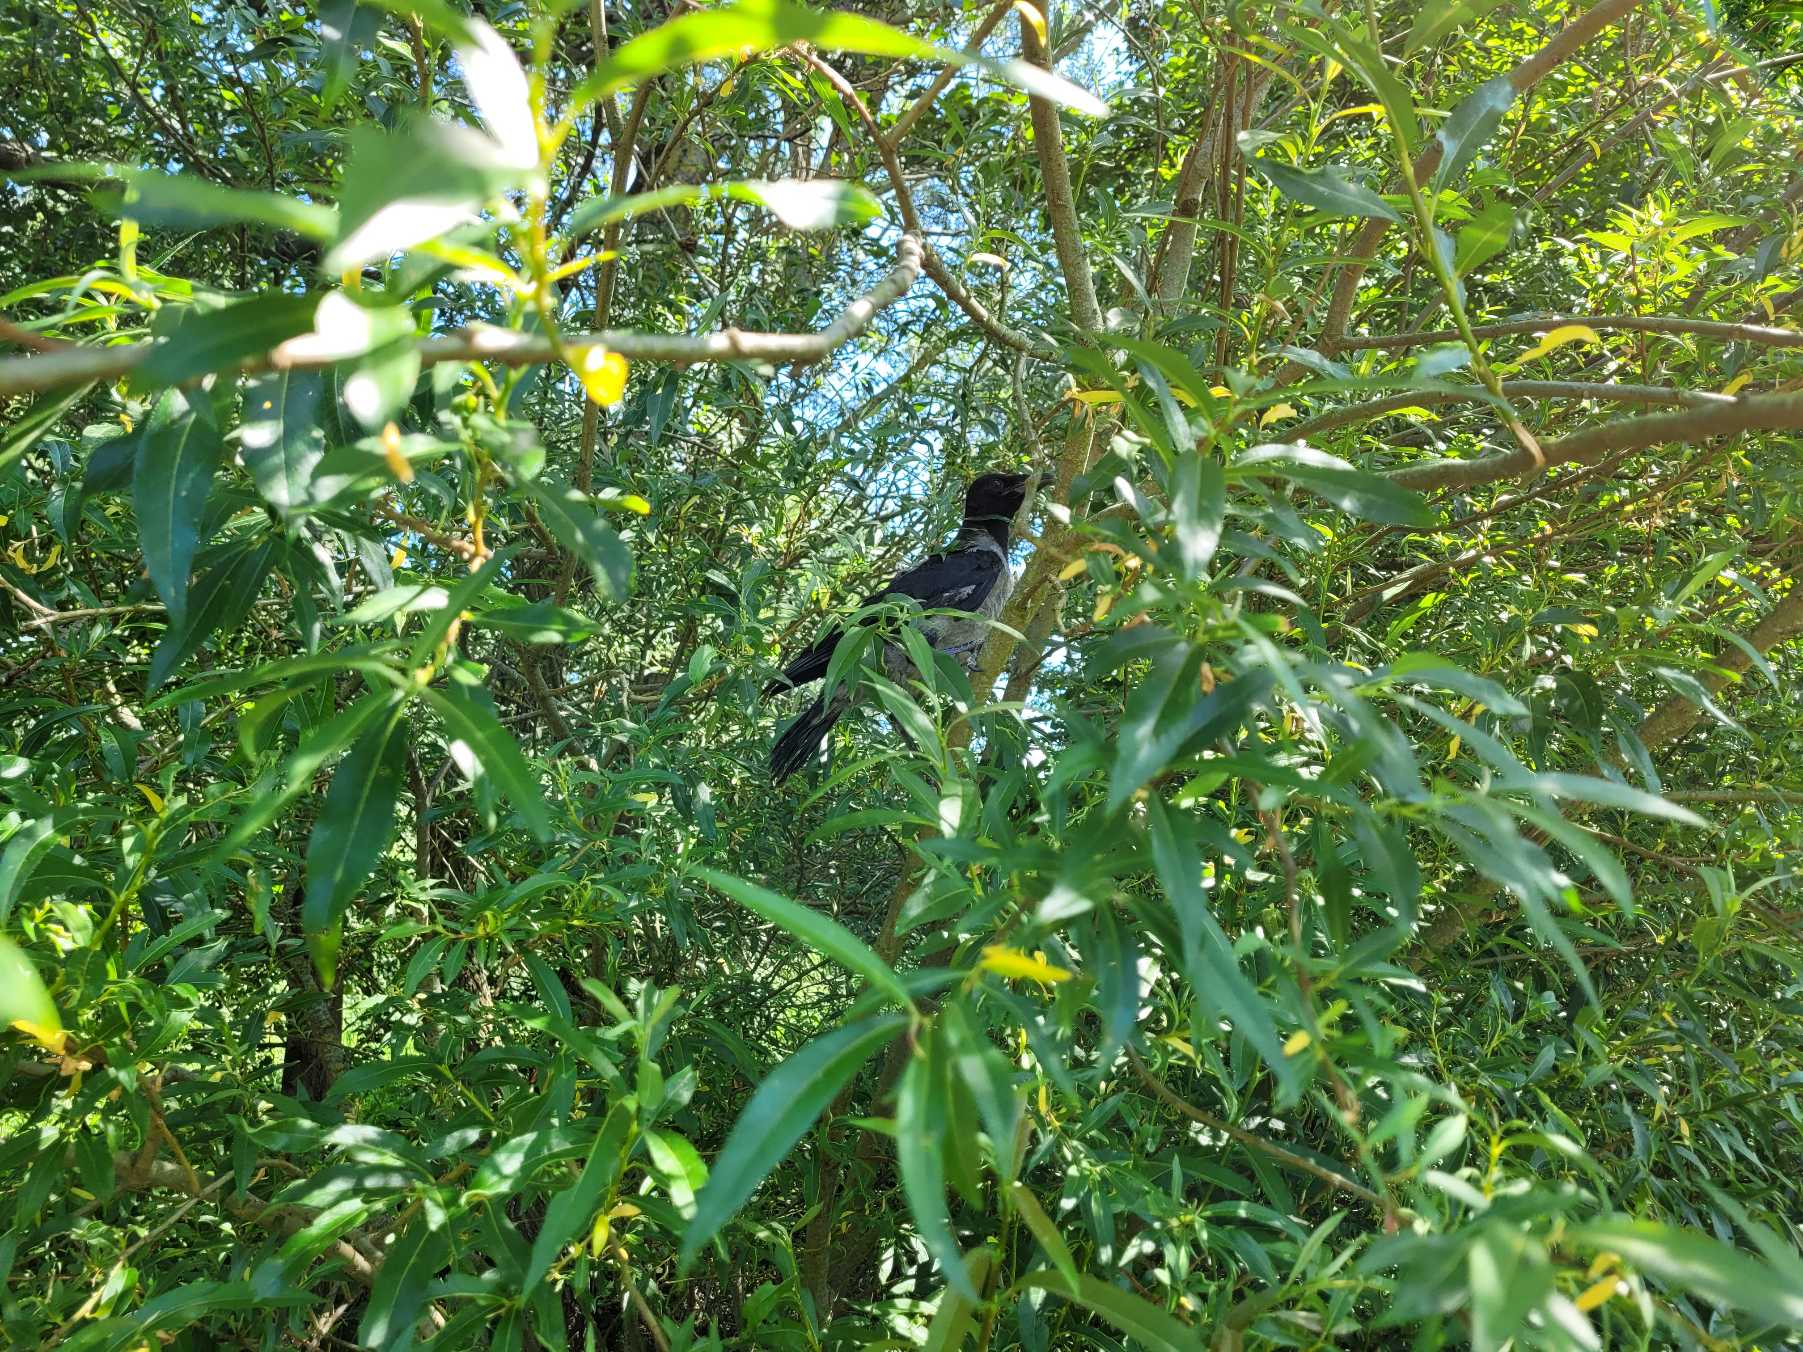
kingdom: Animalia
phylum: Chordata
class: Aves
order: Passeriformes
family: Corvidae
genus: Corvus
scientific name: Corvus cornix
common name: Gråkrage
